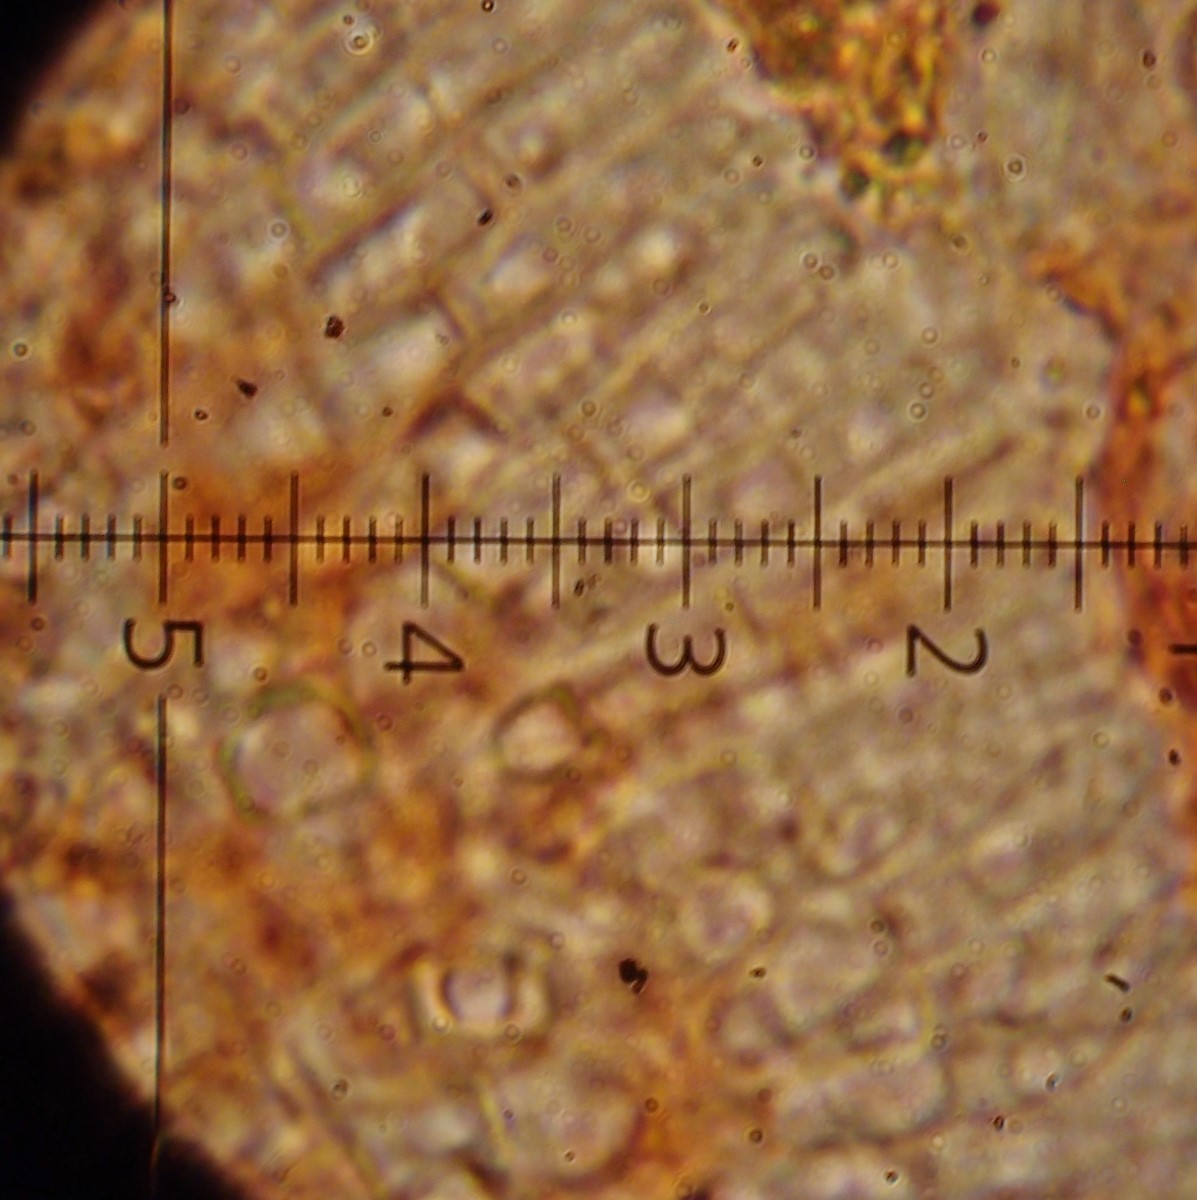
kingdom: Fungi
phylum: Ascomycota
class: Leotiomycetes
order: Rhytismatales
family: Rhytismataceae
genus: Hypoderma
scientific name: Hypoderma hederae
